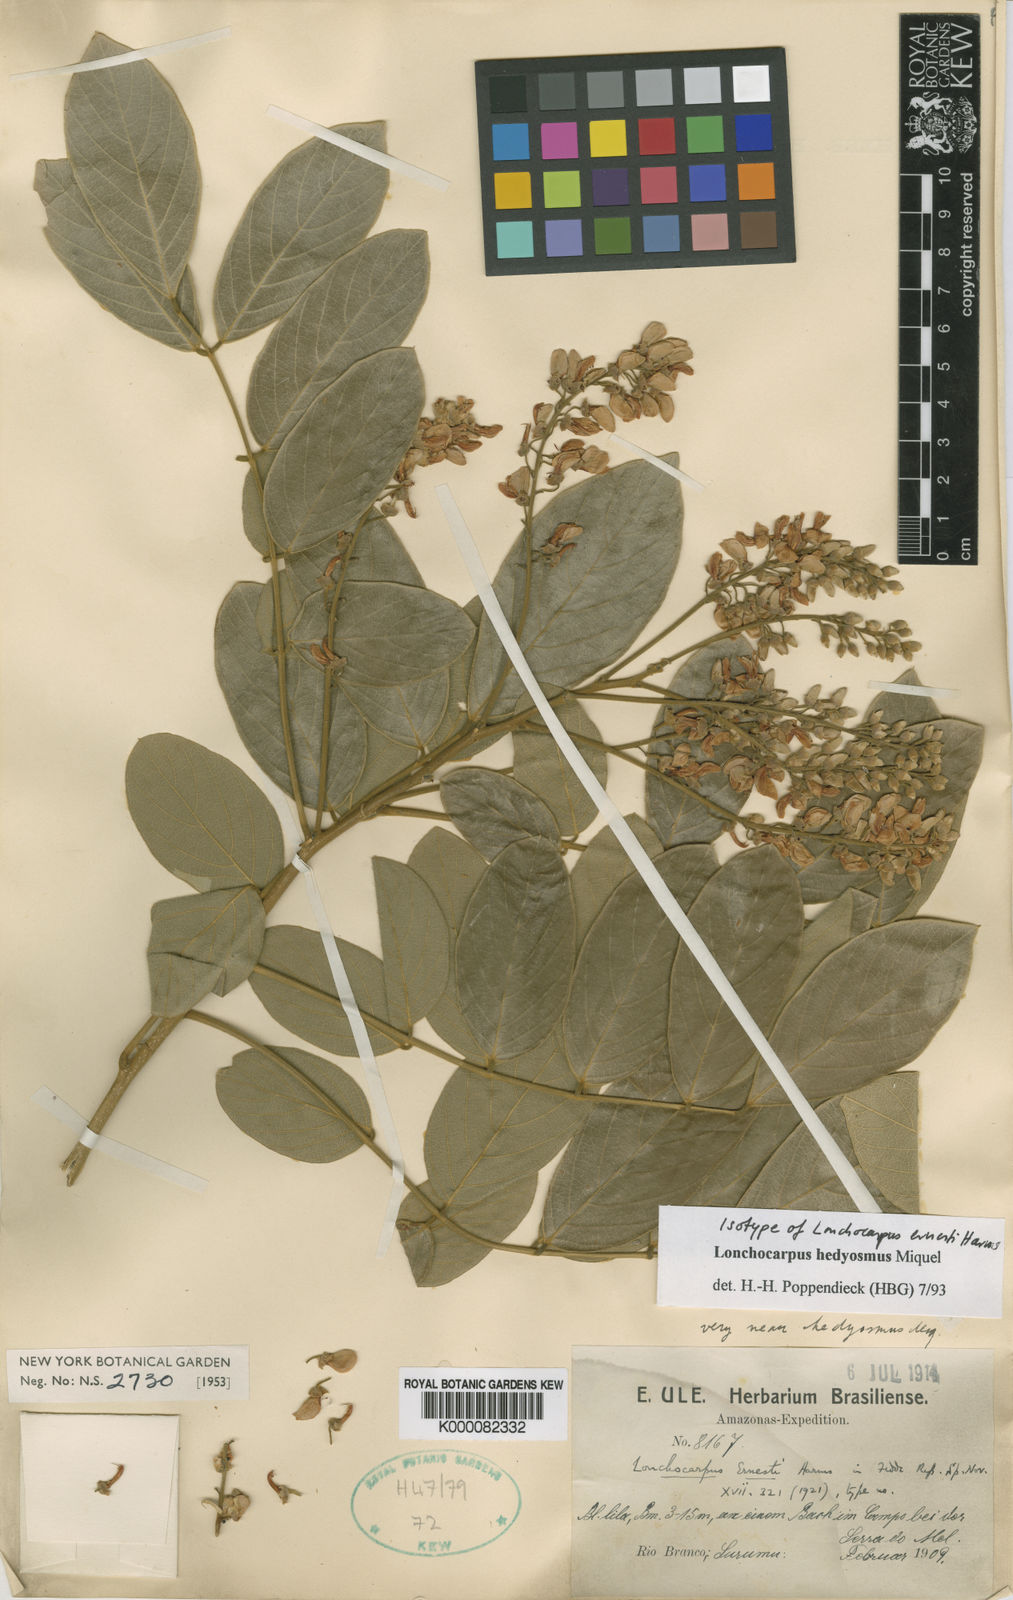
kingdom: Plantae
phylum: Tracheophyta
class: Magnoliopsida
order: Fabales
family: Fabaceae
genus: Lonchocarpus
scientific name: Lonchocarpus hedyosmus
